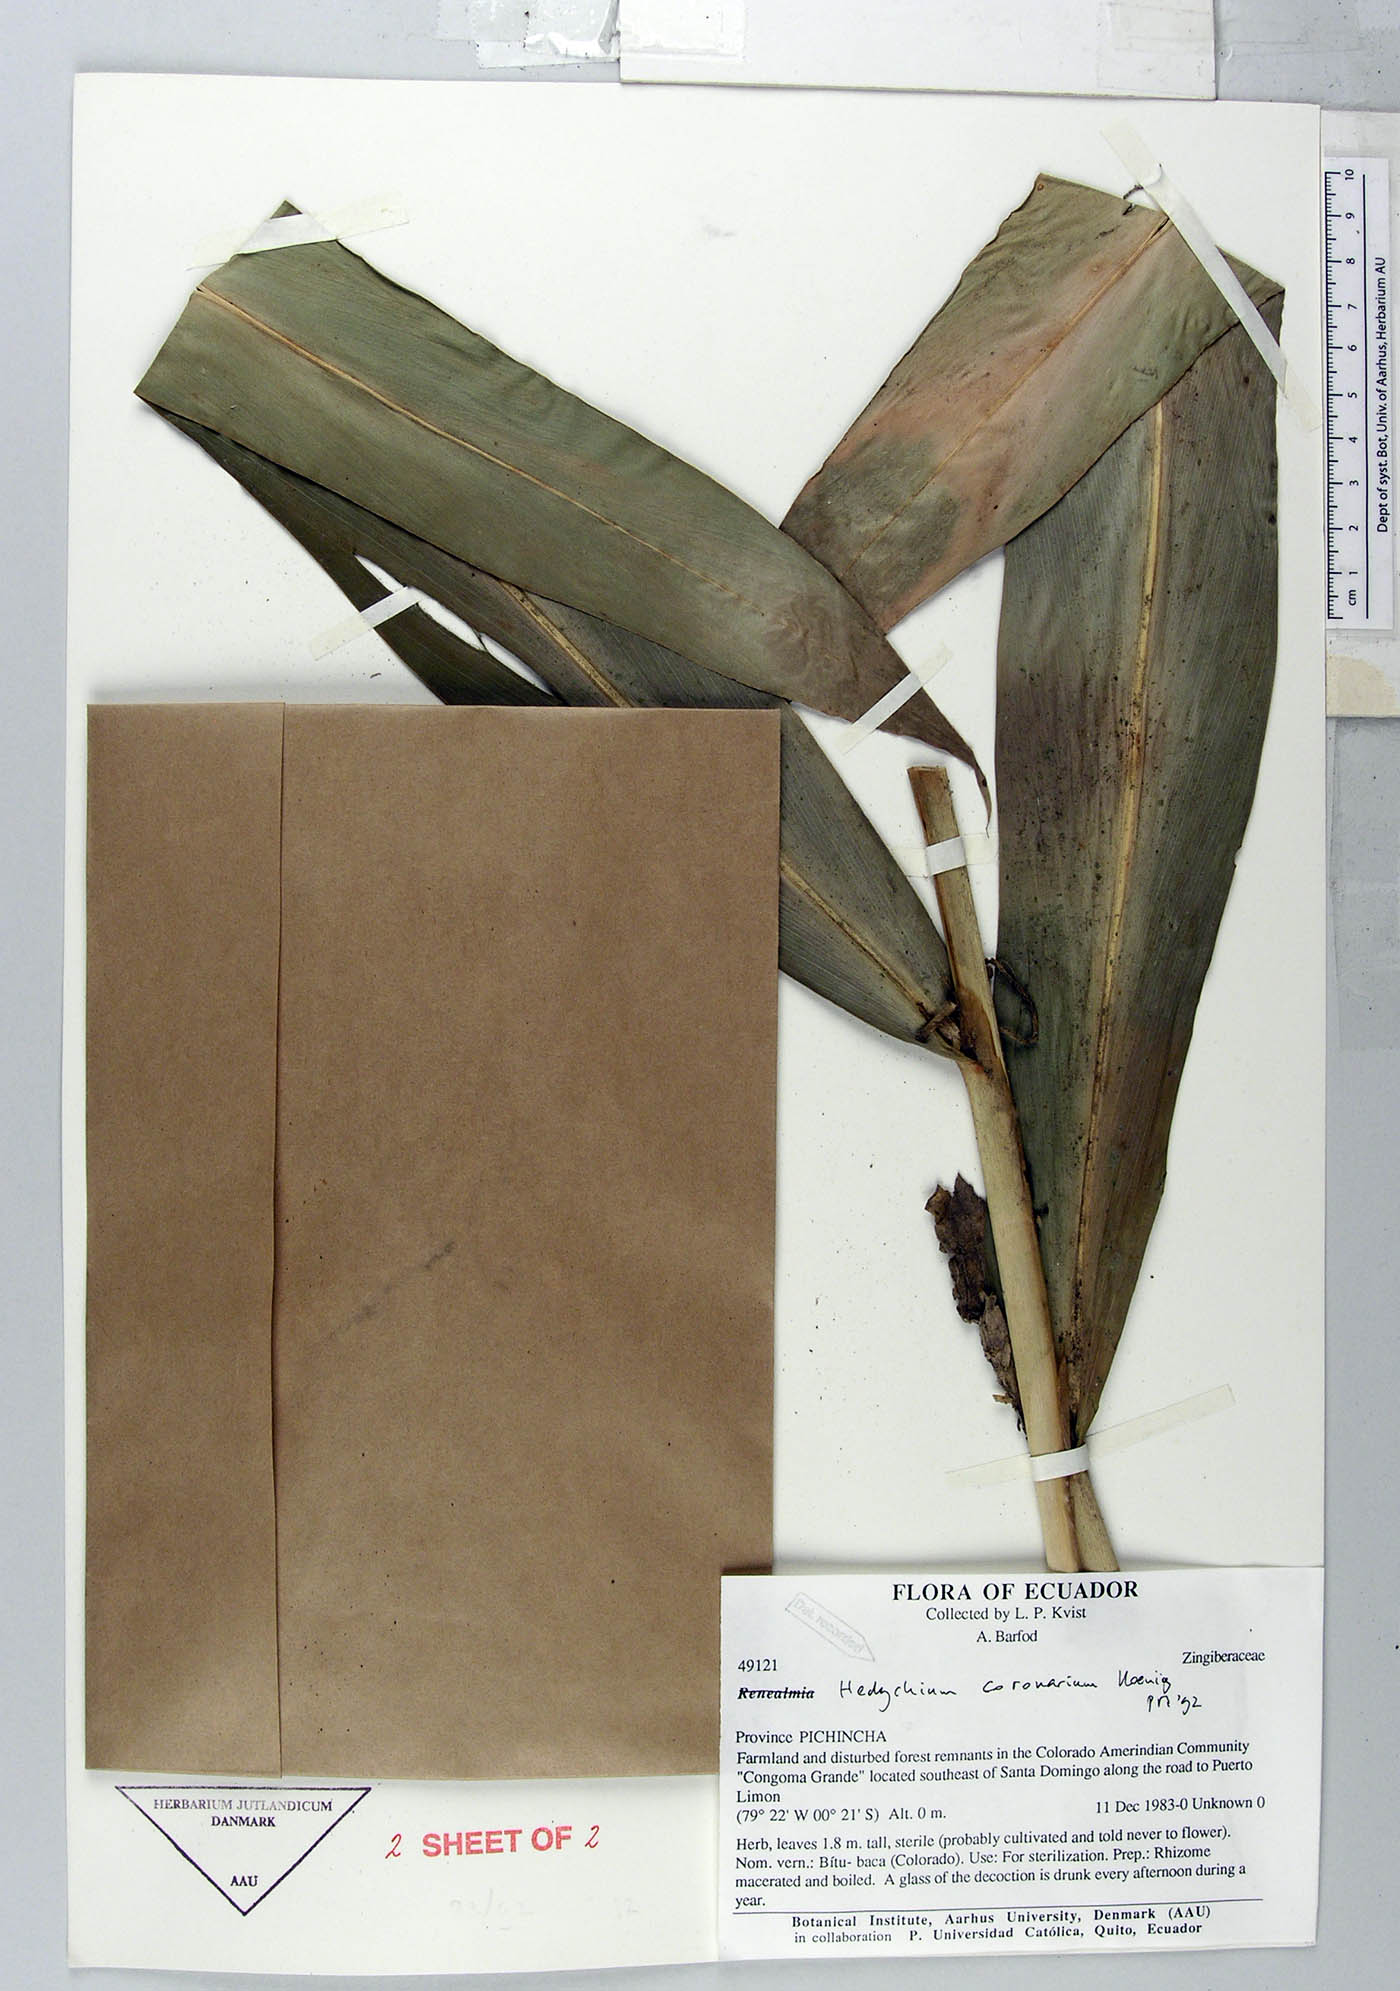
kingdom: Plantae
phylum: Tracheophyta
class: Liliopsida
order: Zingiberales
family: Zingiberaceae
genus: Hedychium
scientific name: Hedychium coronarium
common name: White garland-lily
